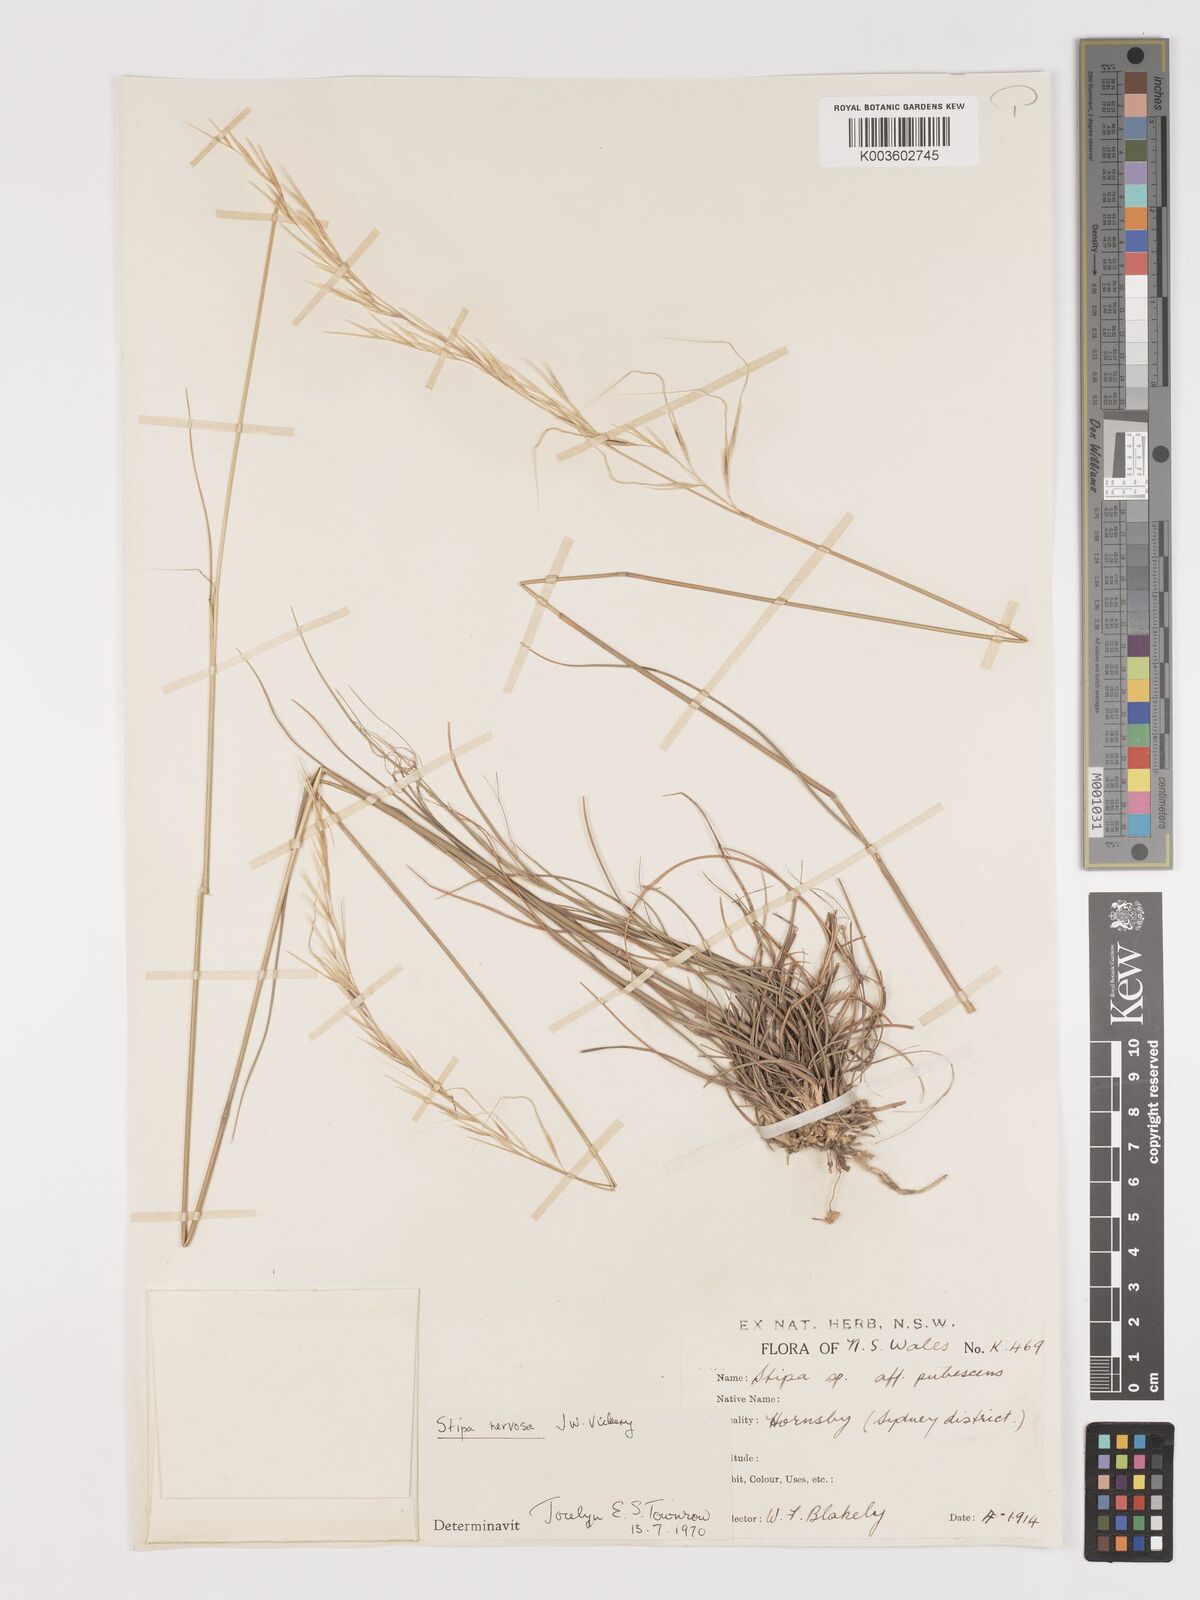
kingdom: Plantae
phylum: Tracheophyta
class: Liliopsida
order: Poales
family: Poaceae
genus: Austrostipa
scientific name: Austrostipa rudis
